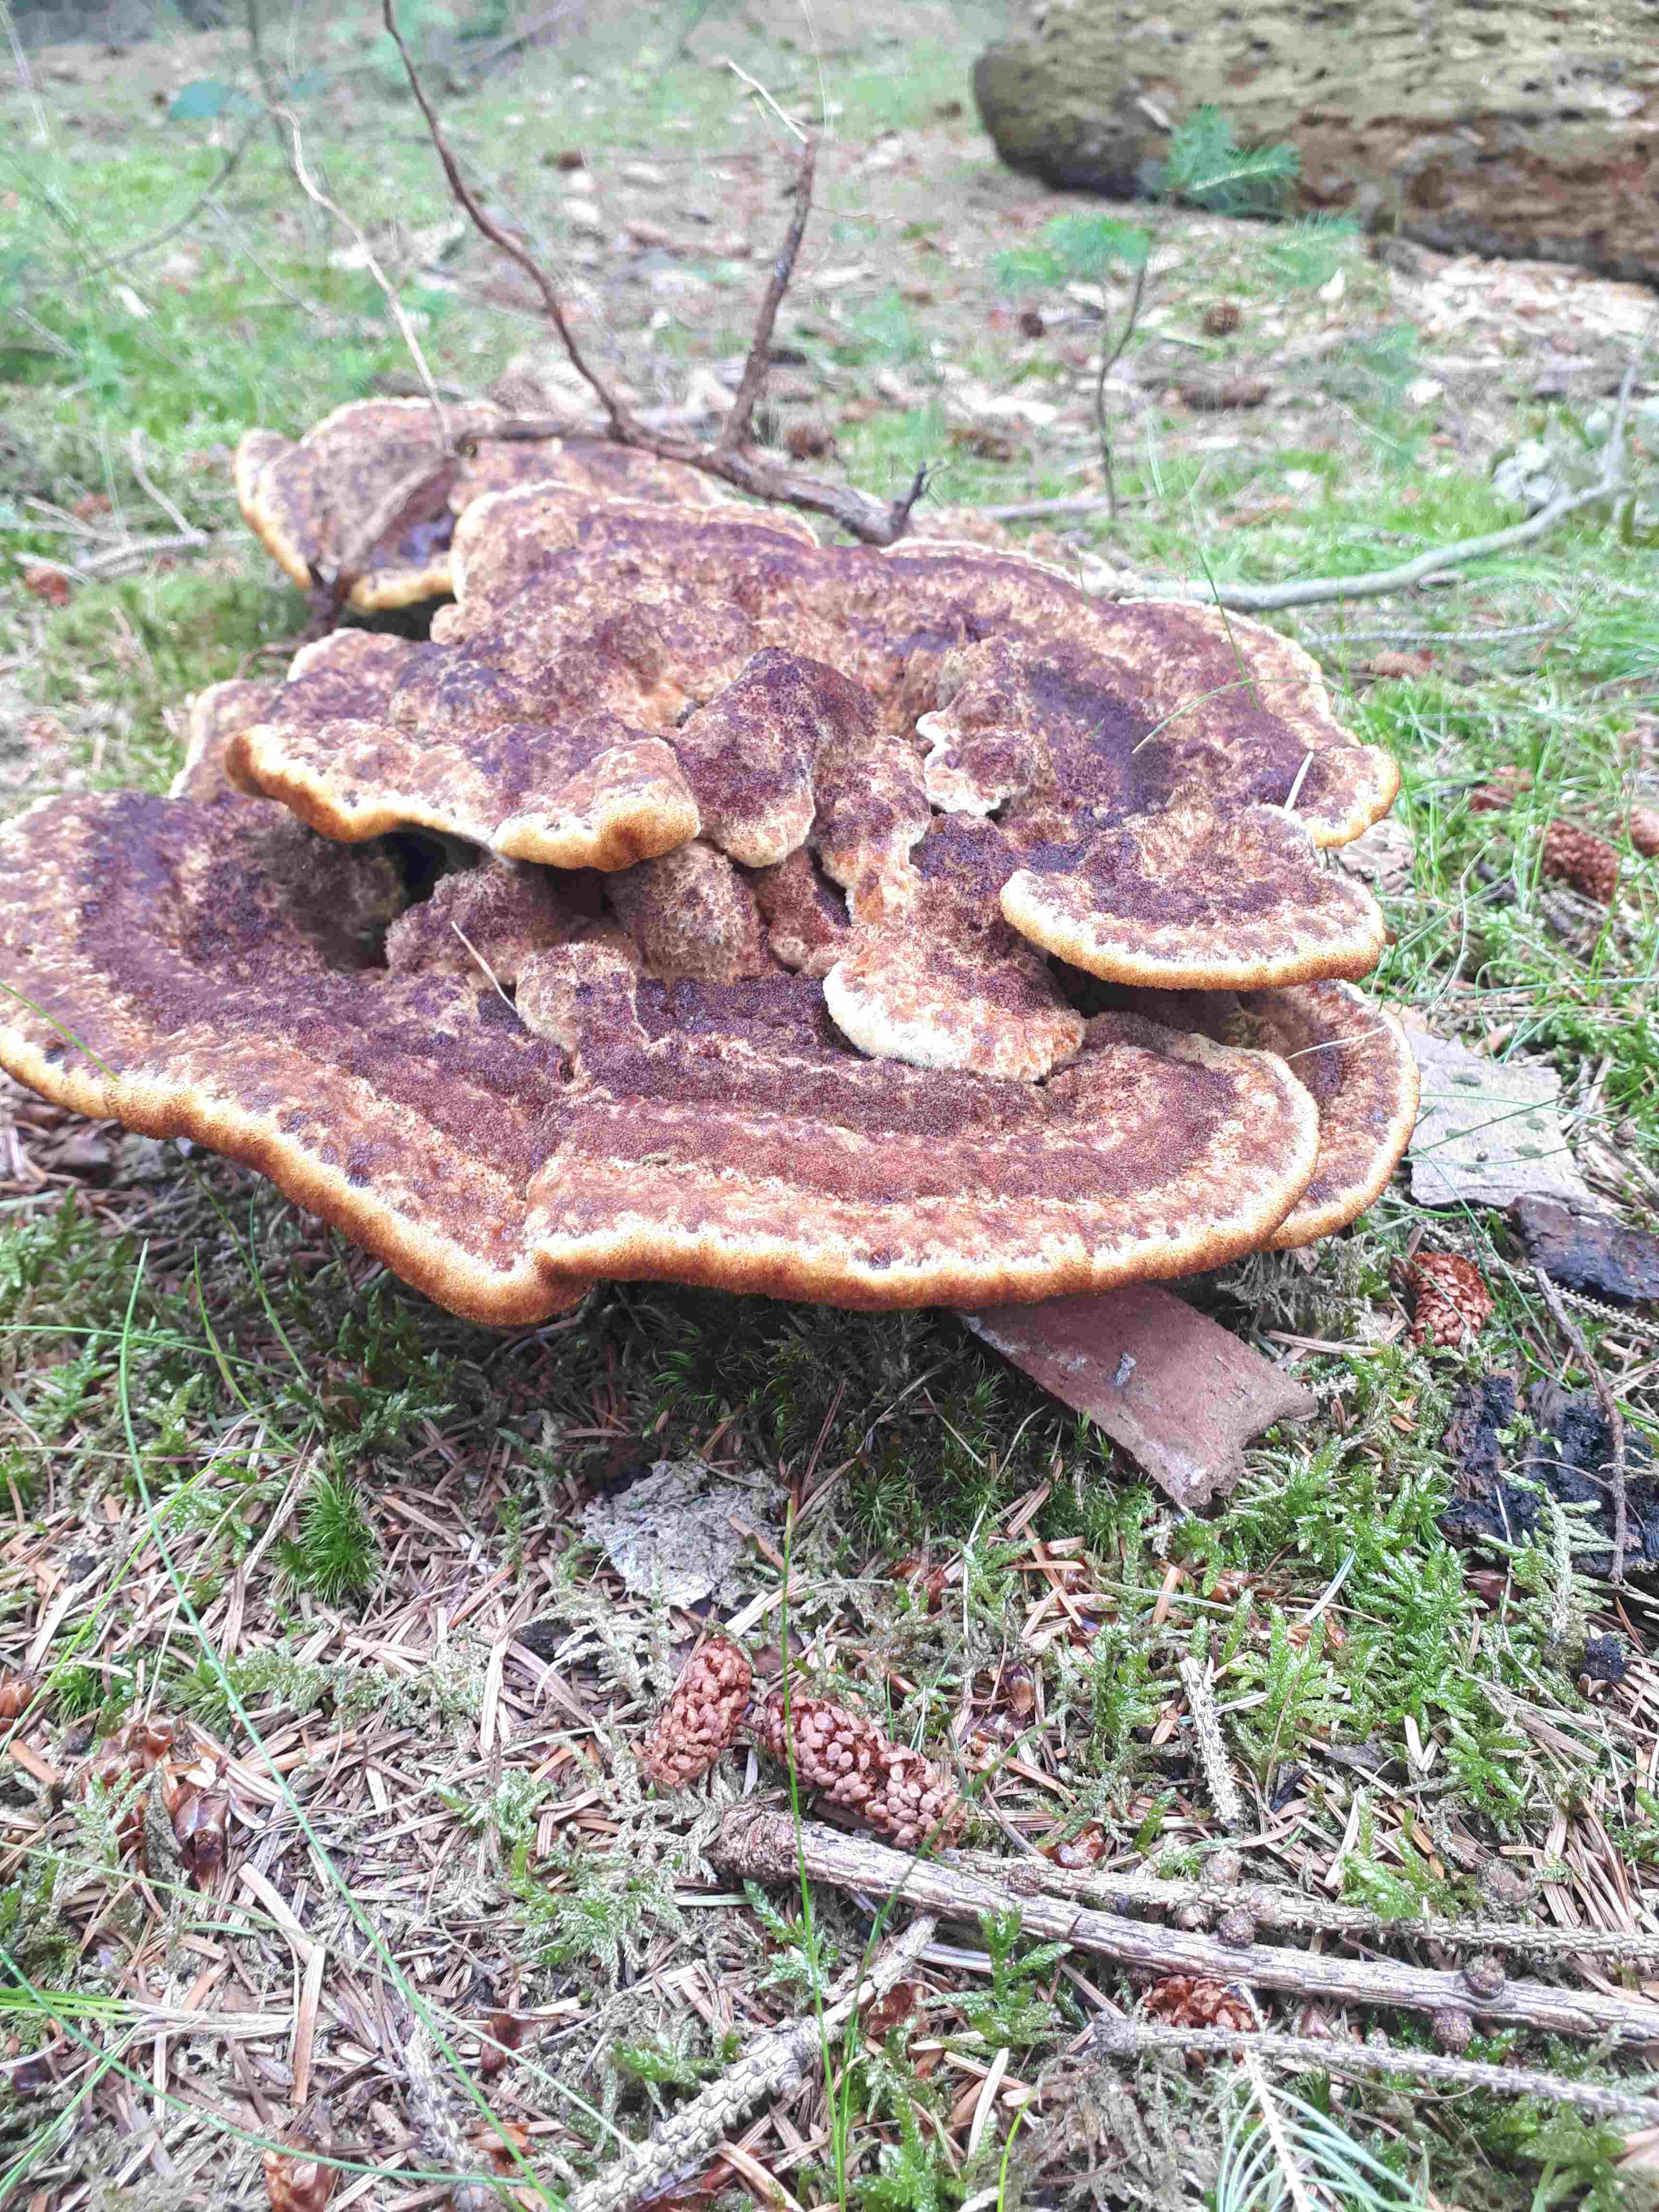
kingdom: Fungi
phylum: Basidiomycota
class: Agaricomycetes
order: Polyporales
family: Laetiporaceae
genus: Phaeolus
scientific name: Phaeolus schweinitzii
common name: brunporesvamp
